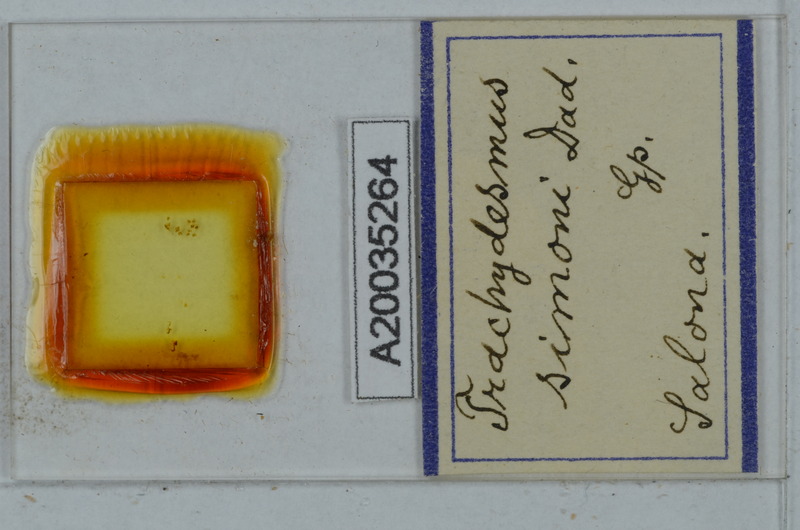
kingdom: Animalia
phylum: Arthropoda
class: Diplopoda
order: Polydesmida
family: Paradoxosomatidae
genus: Stosatea
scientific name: Stosatea simonii
